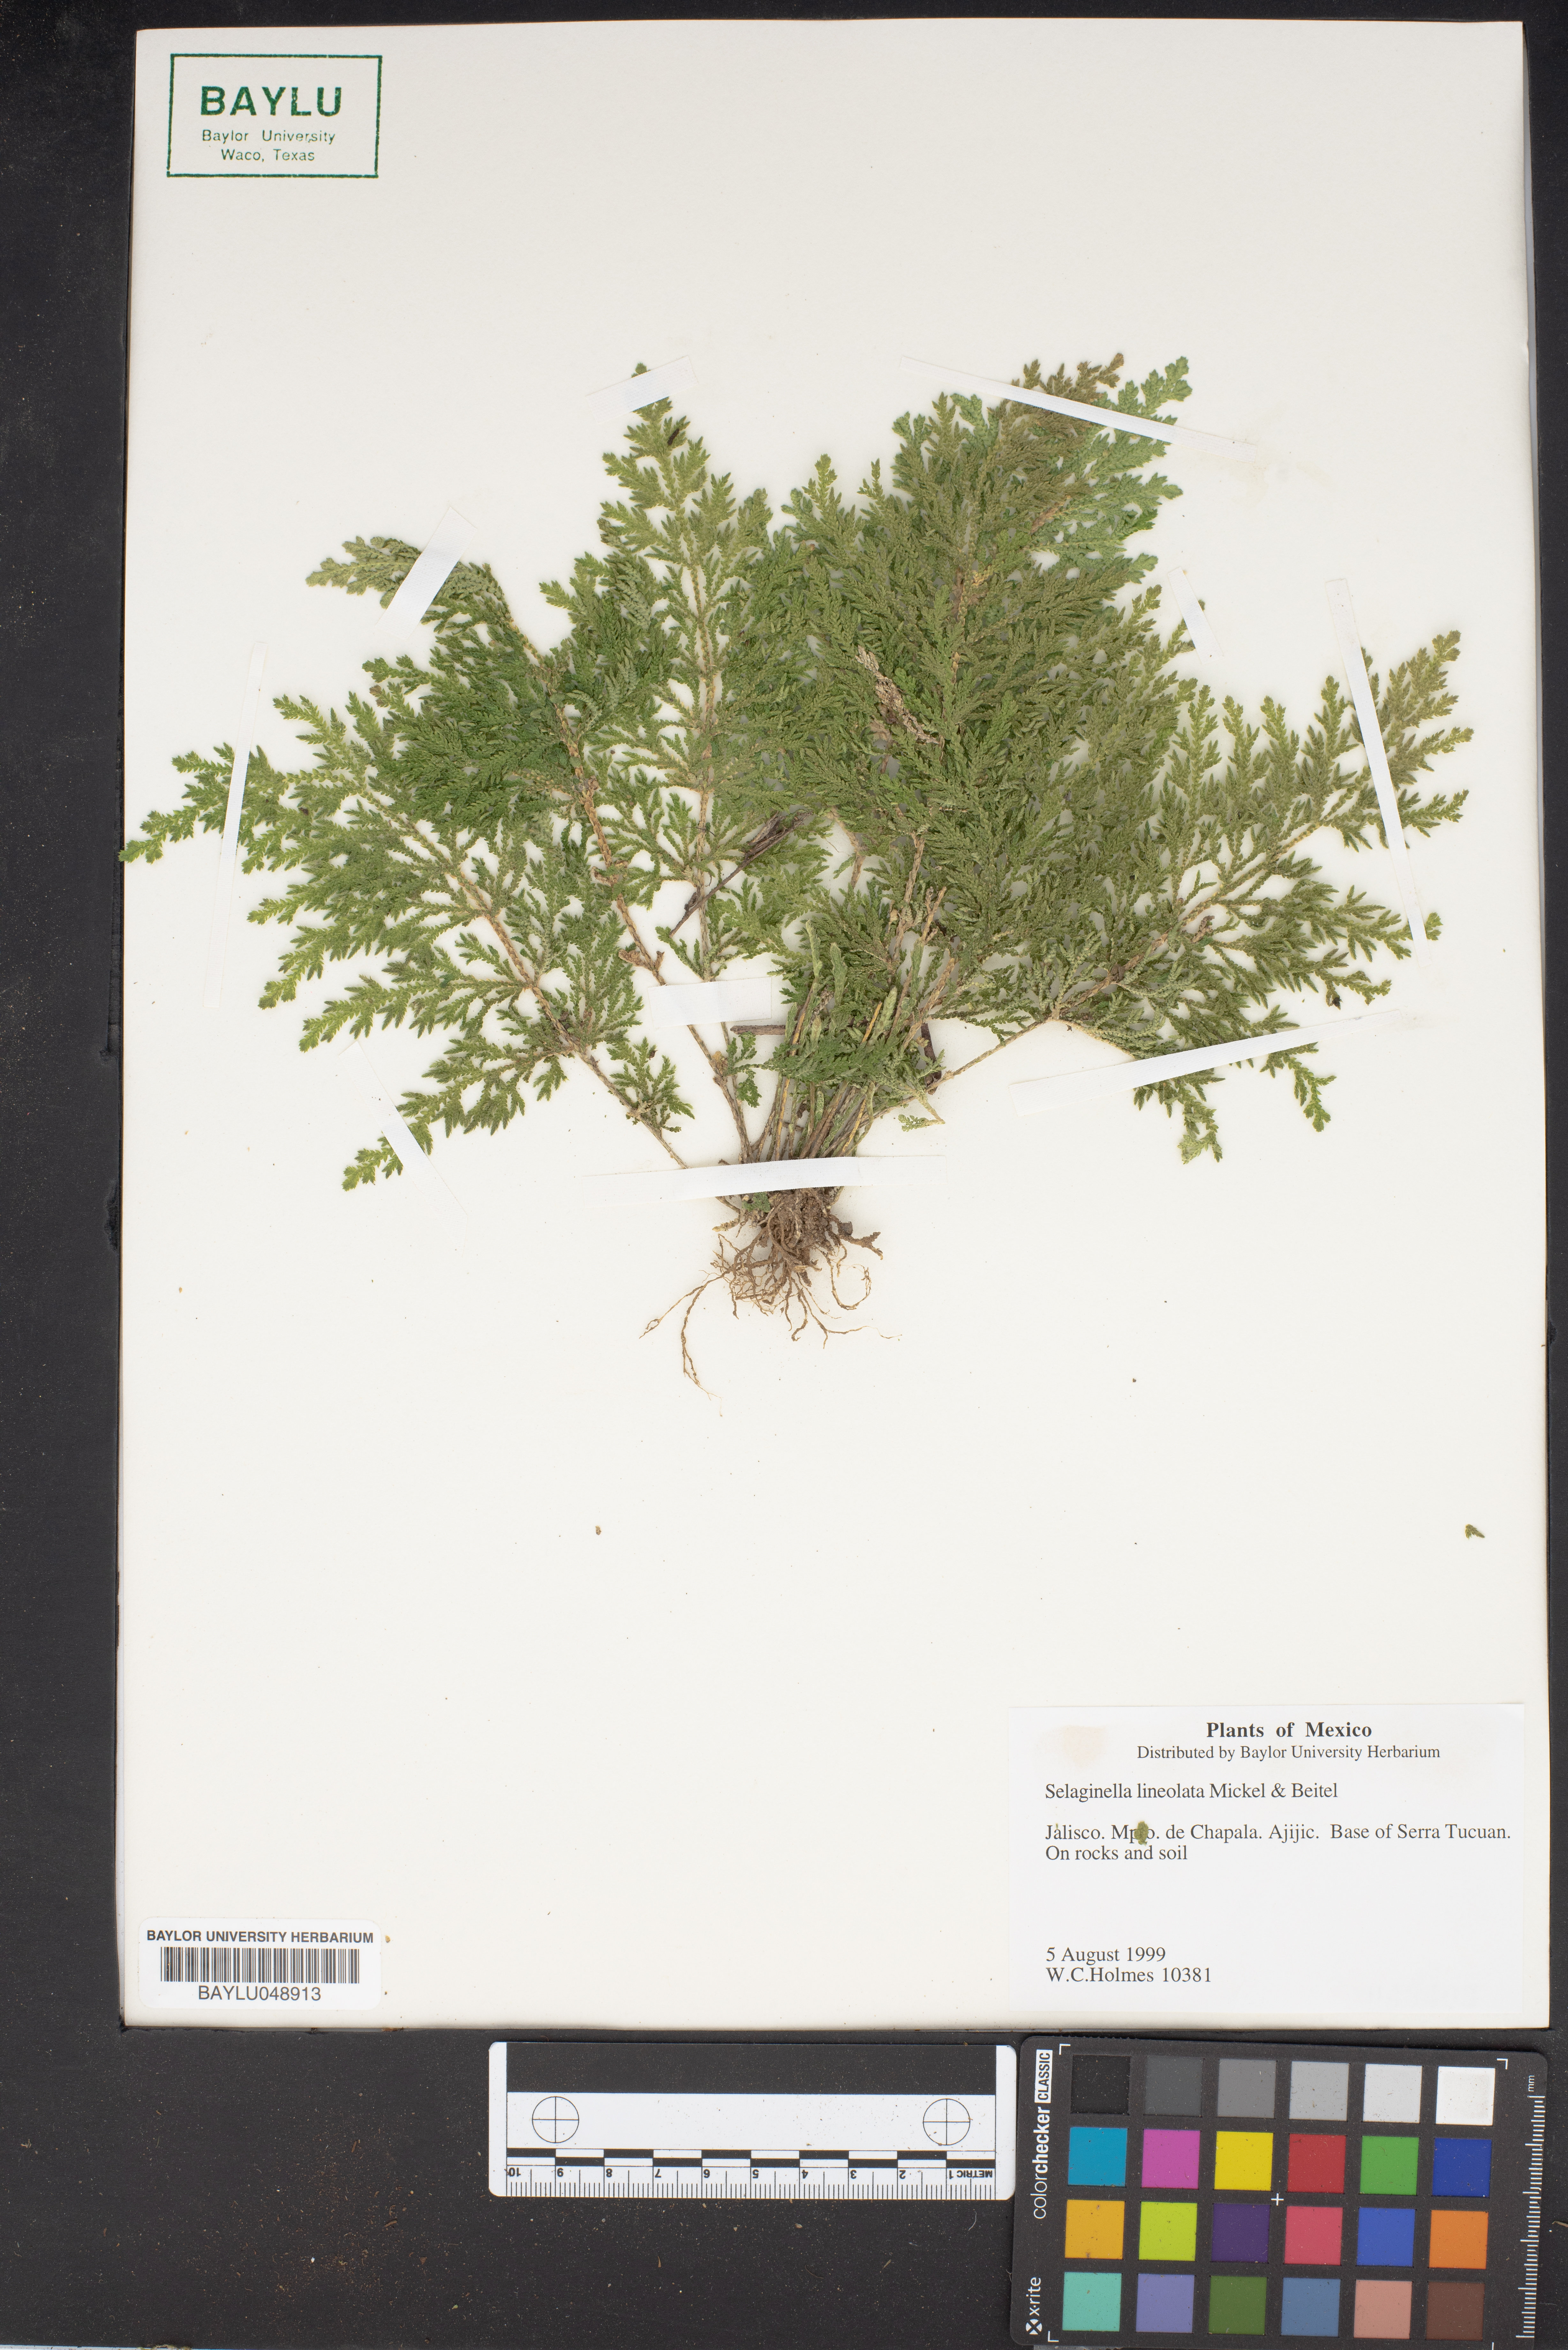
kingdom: Plantae
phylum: Tracheophyta
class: Lycopodiopsida
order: Selaginellales
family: Selaginellaceae
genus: Selaginella
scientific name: Selaginella lineolata
